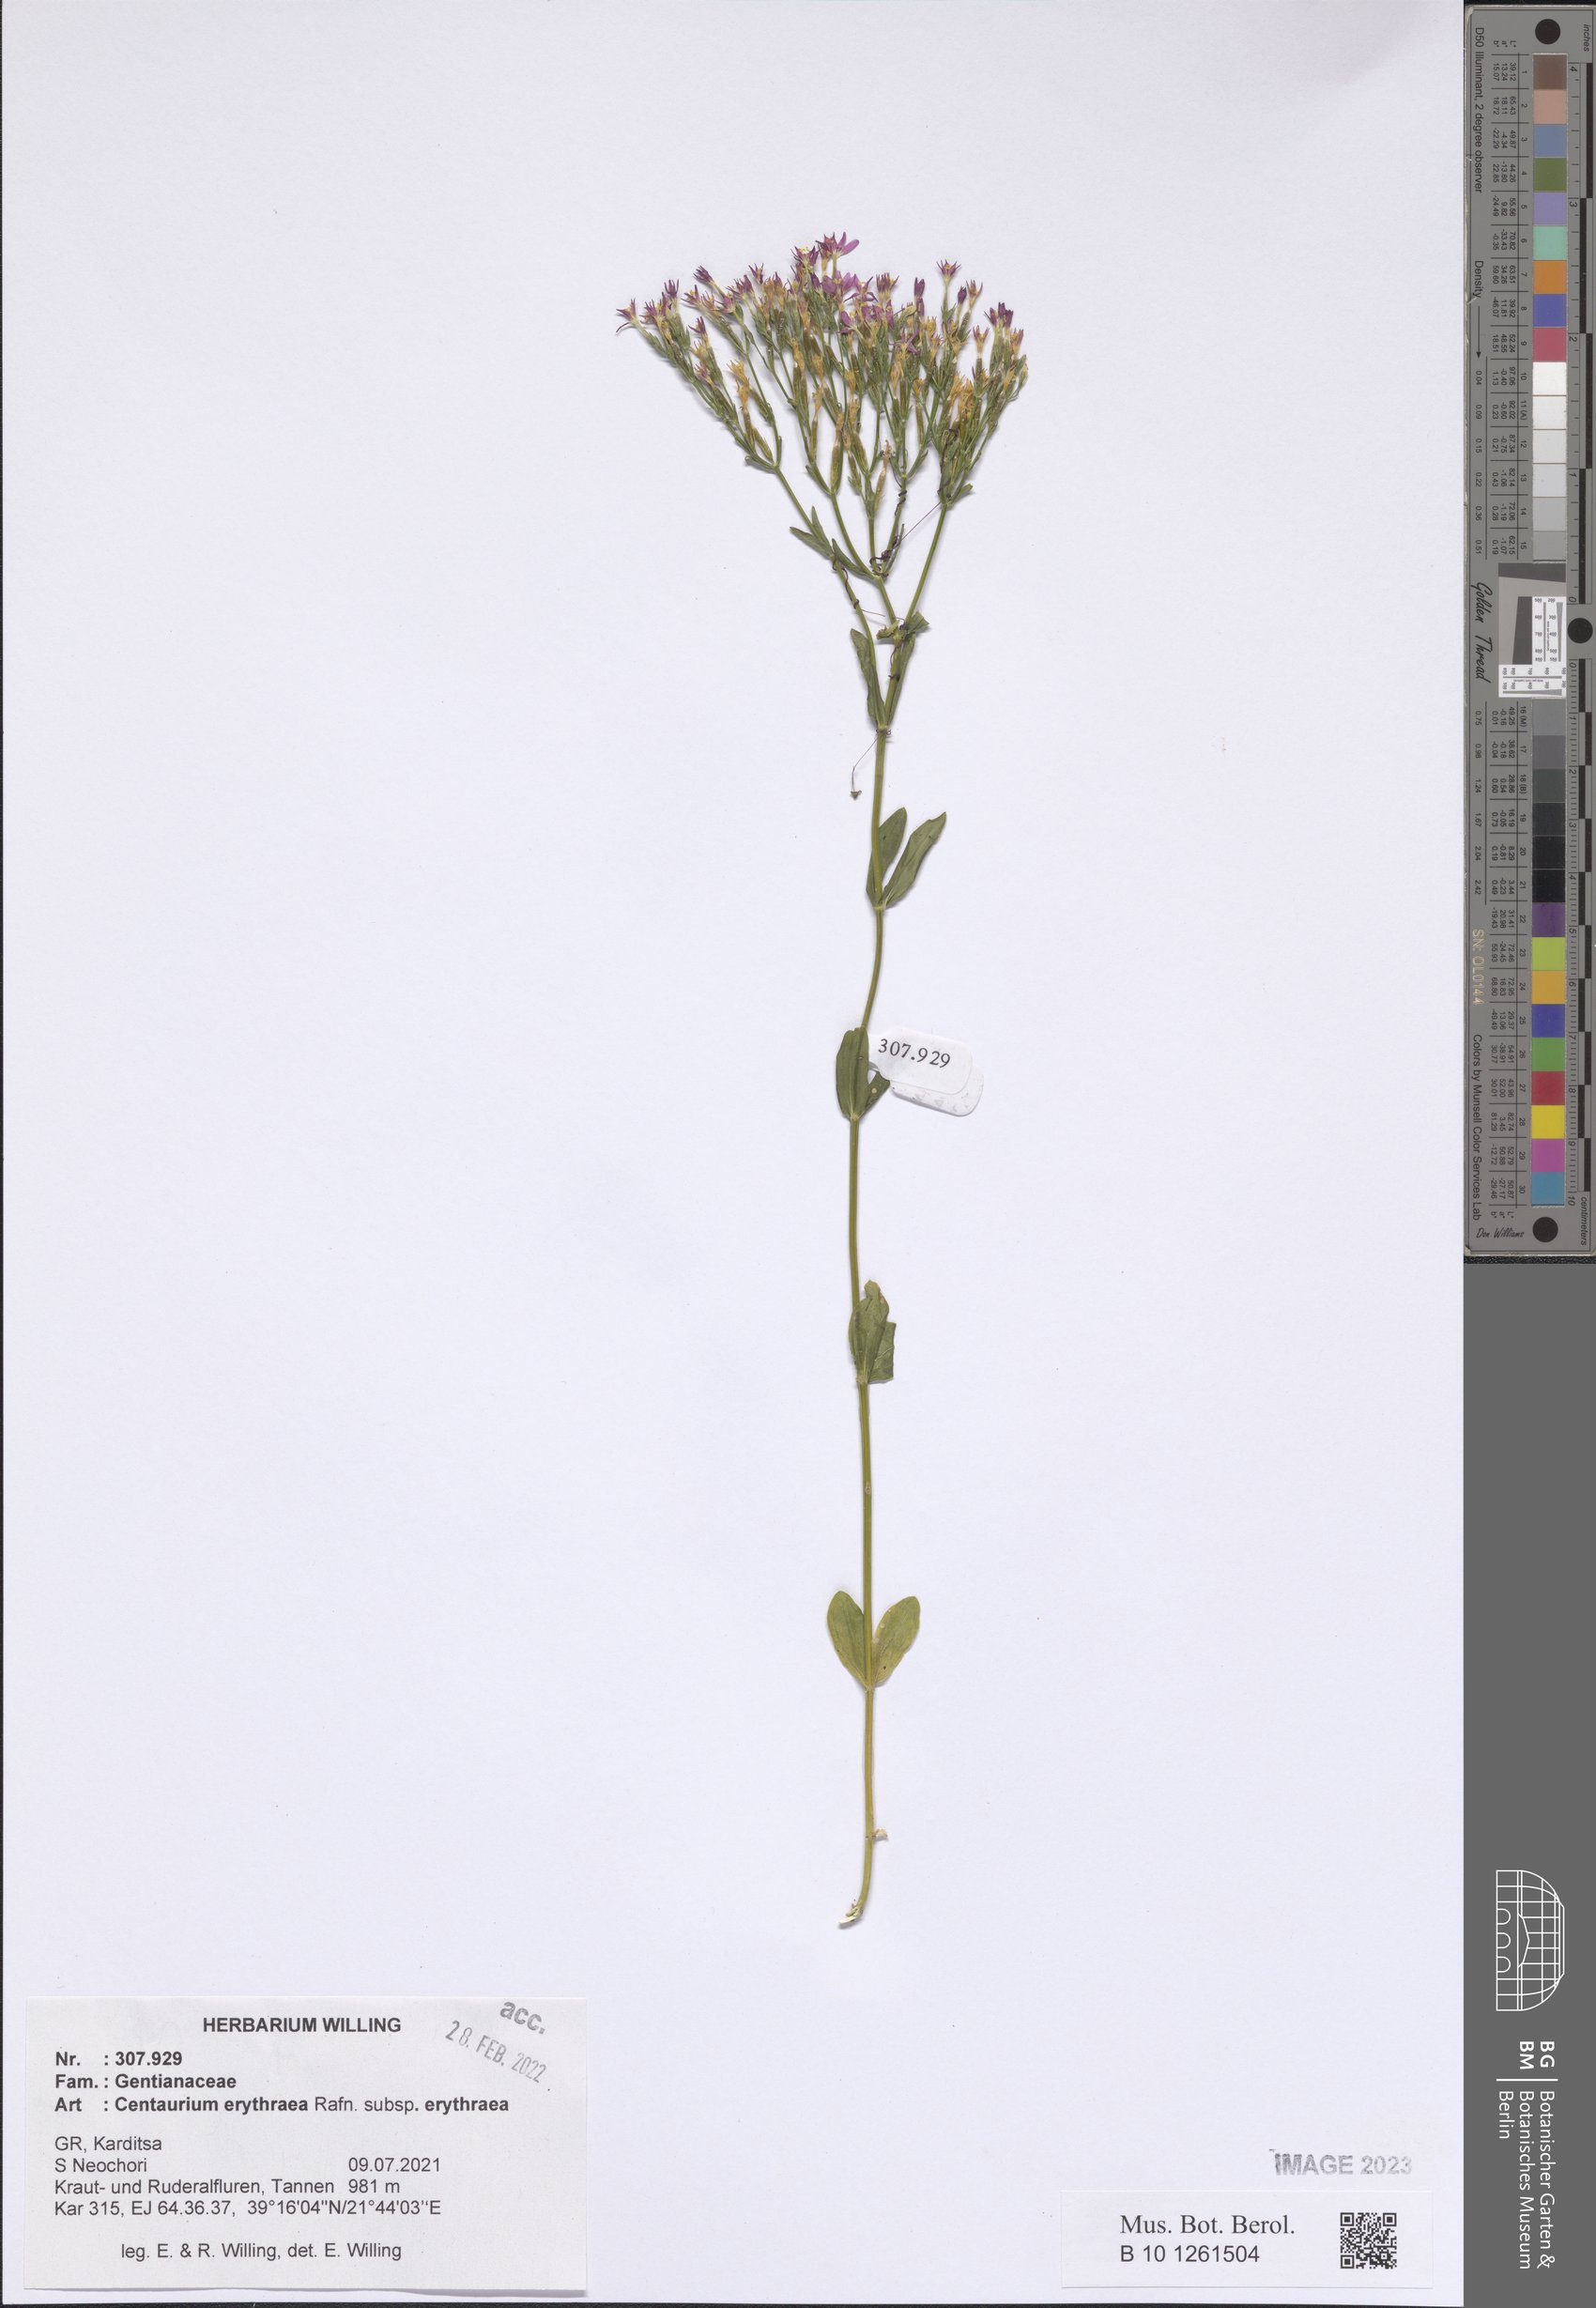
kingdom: Plantae
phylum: Tracheophyta
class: Magnoliopsida
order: Gentianales
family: Gentianaceae
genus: Centaurium
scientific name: Centaurium erythraea
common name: Common centaury
